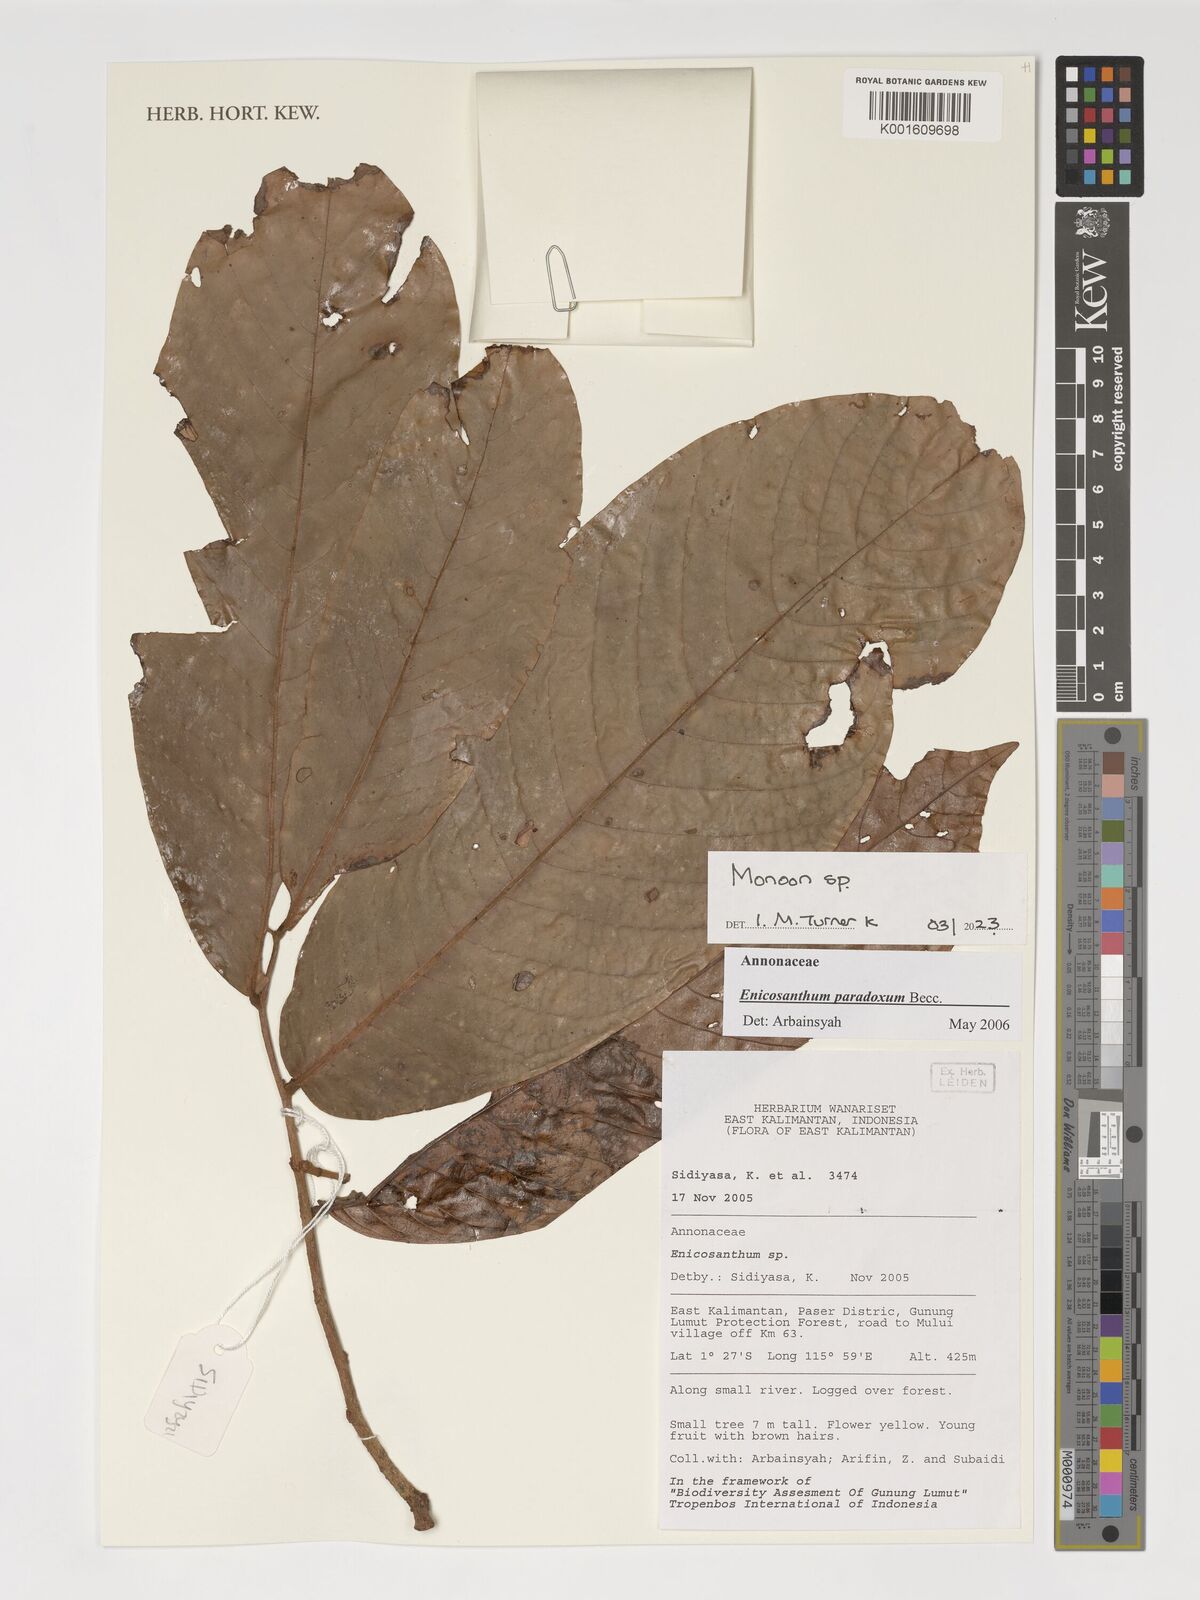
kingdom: Plantae
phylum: Tracheophyta
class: Magnoliopsida
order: Magnoliales
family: Annonaceae
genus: Monoon
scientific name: Monoon
